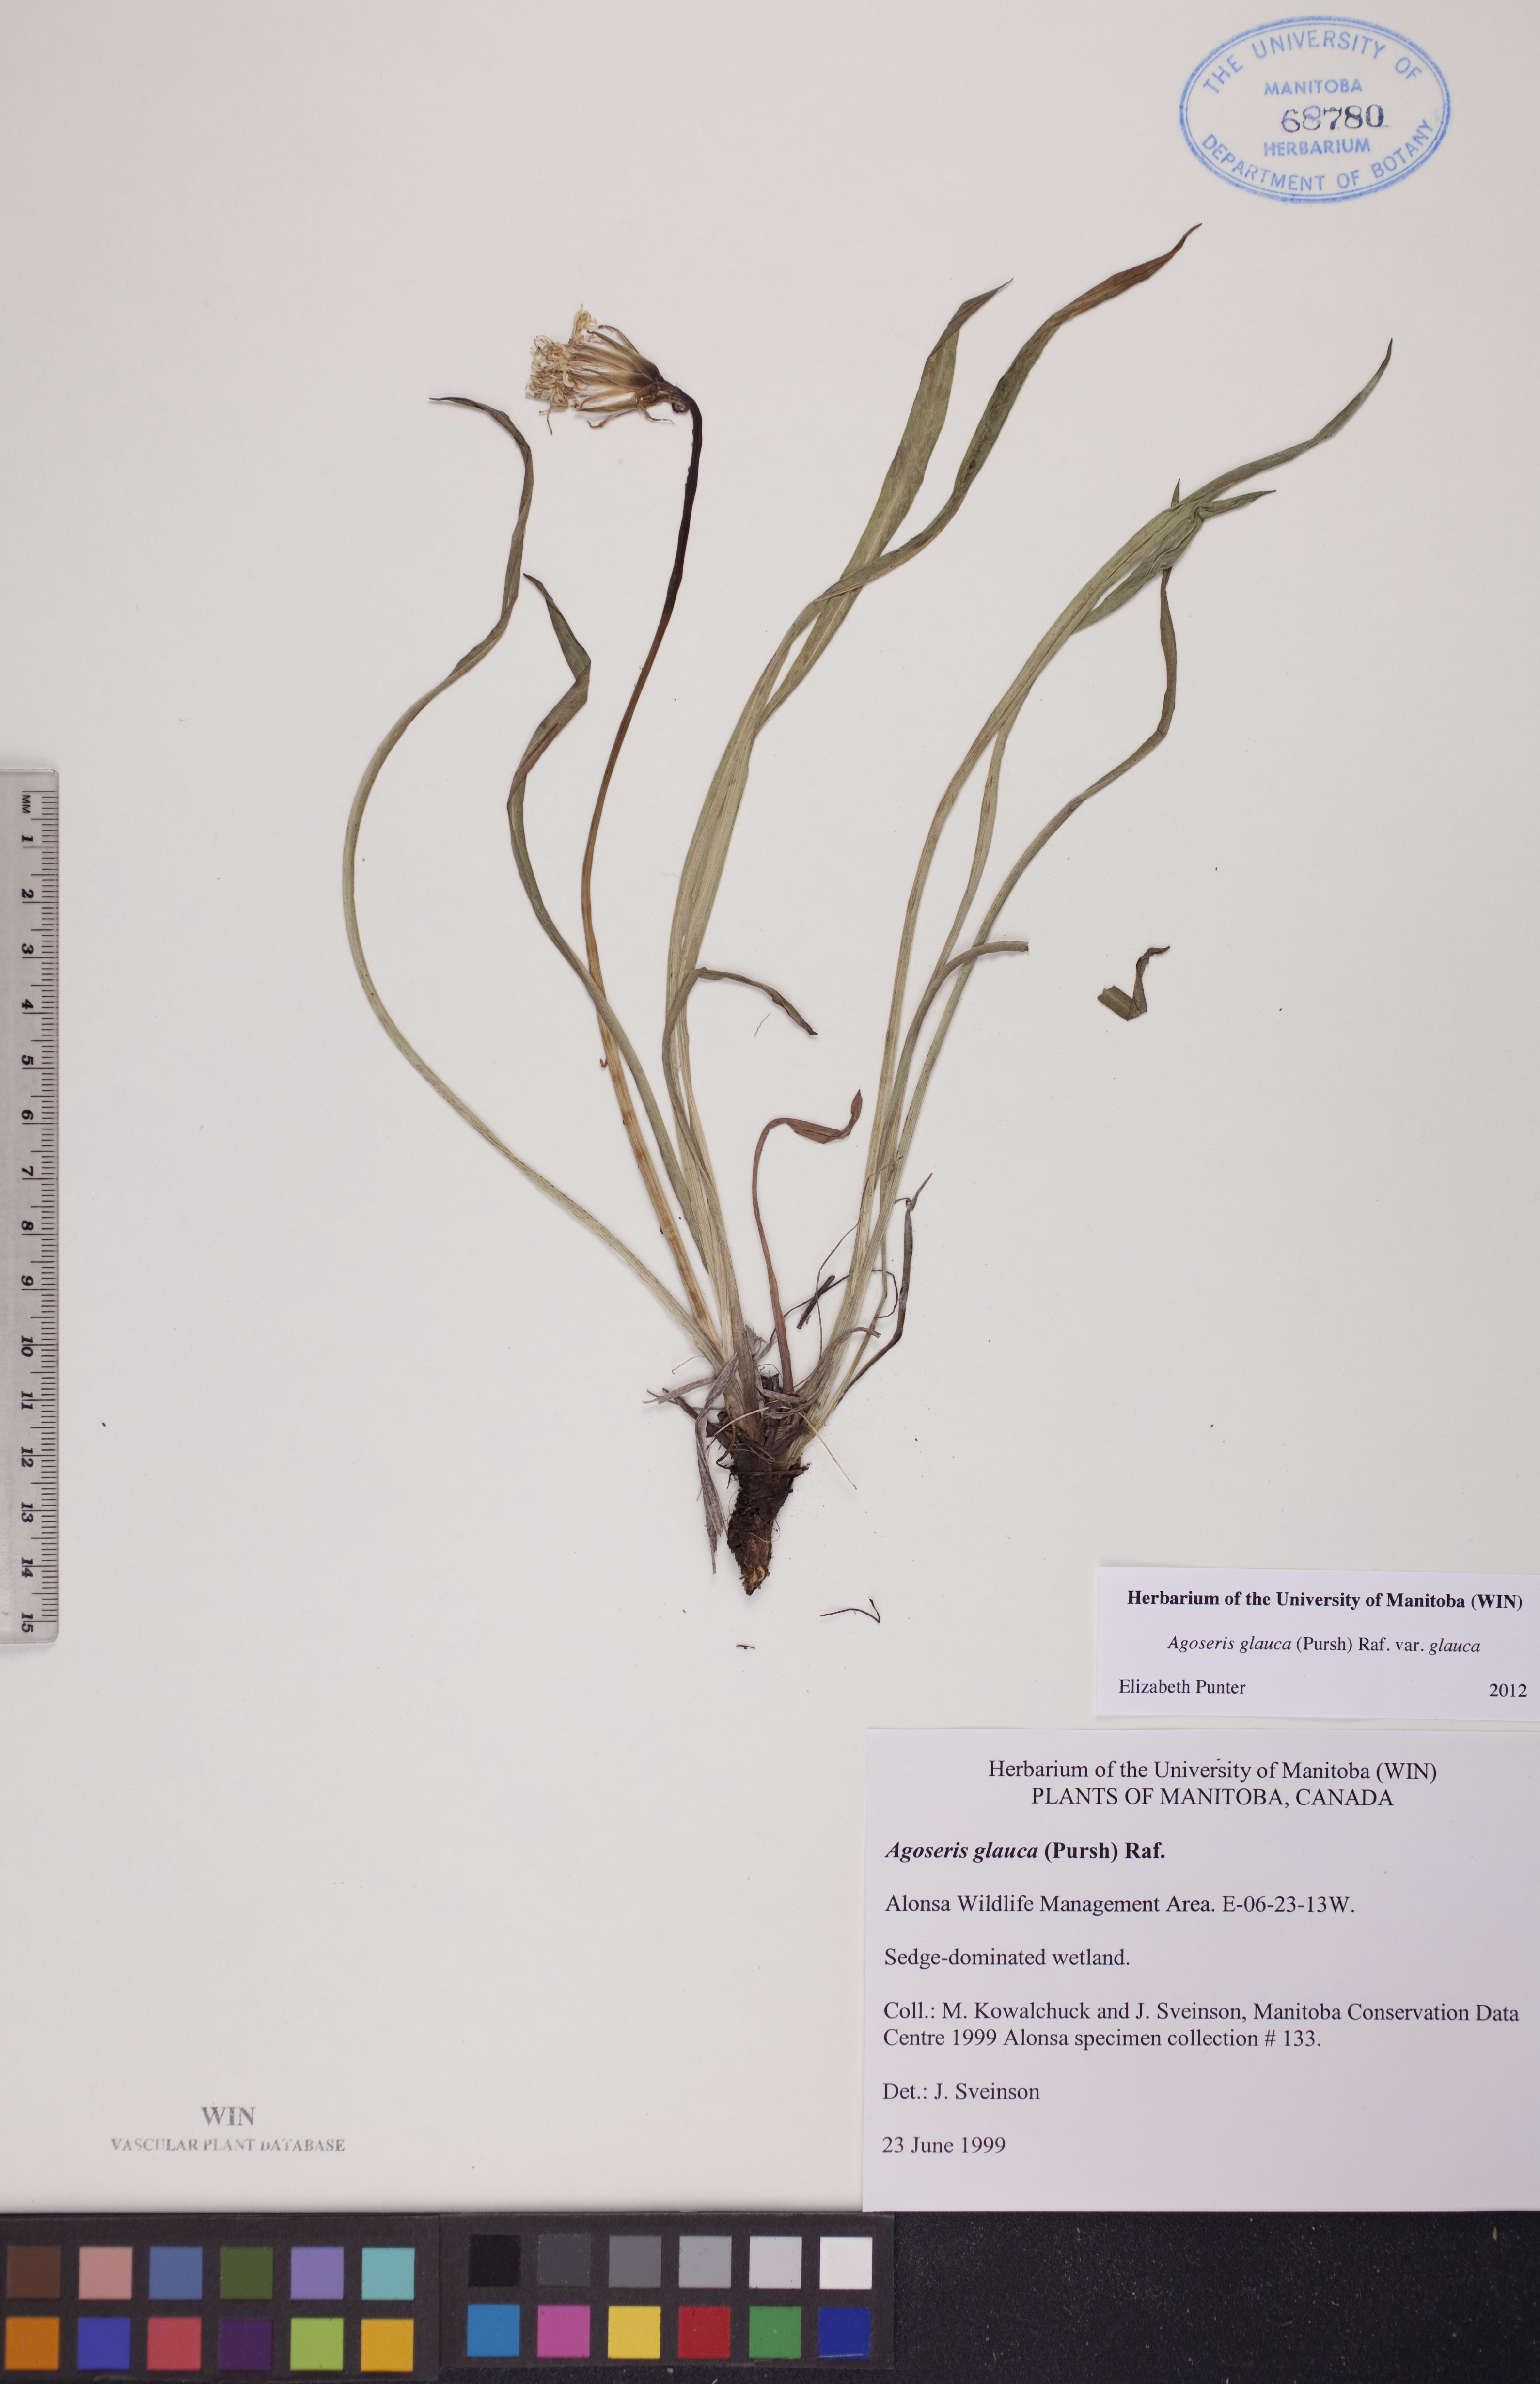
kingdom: Plantae
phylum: Tracheophyta
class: Magnoliopsida
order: Asterales
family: Asteraceae
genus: Agoseris
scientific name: Agoseris glauca
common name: Prairie agoseris
